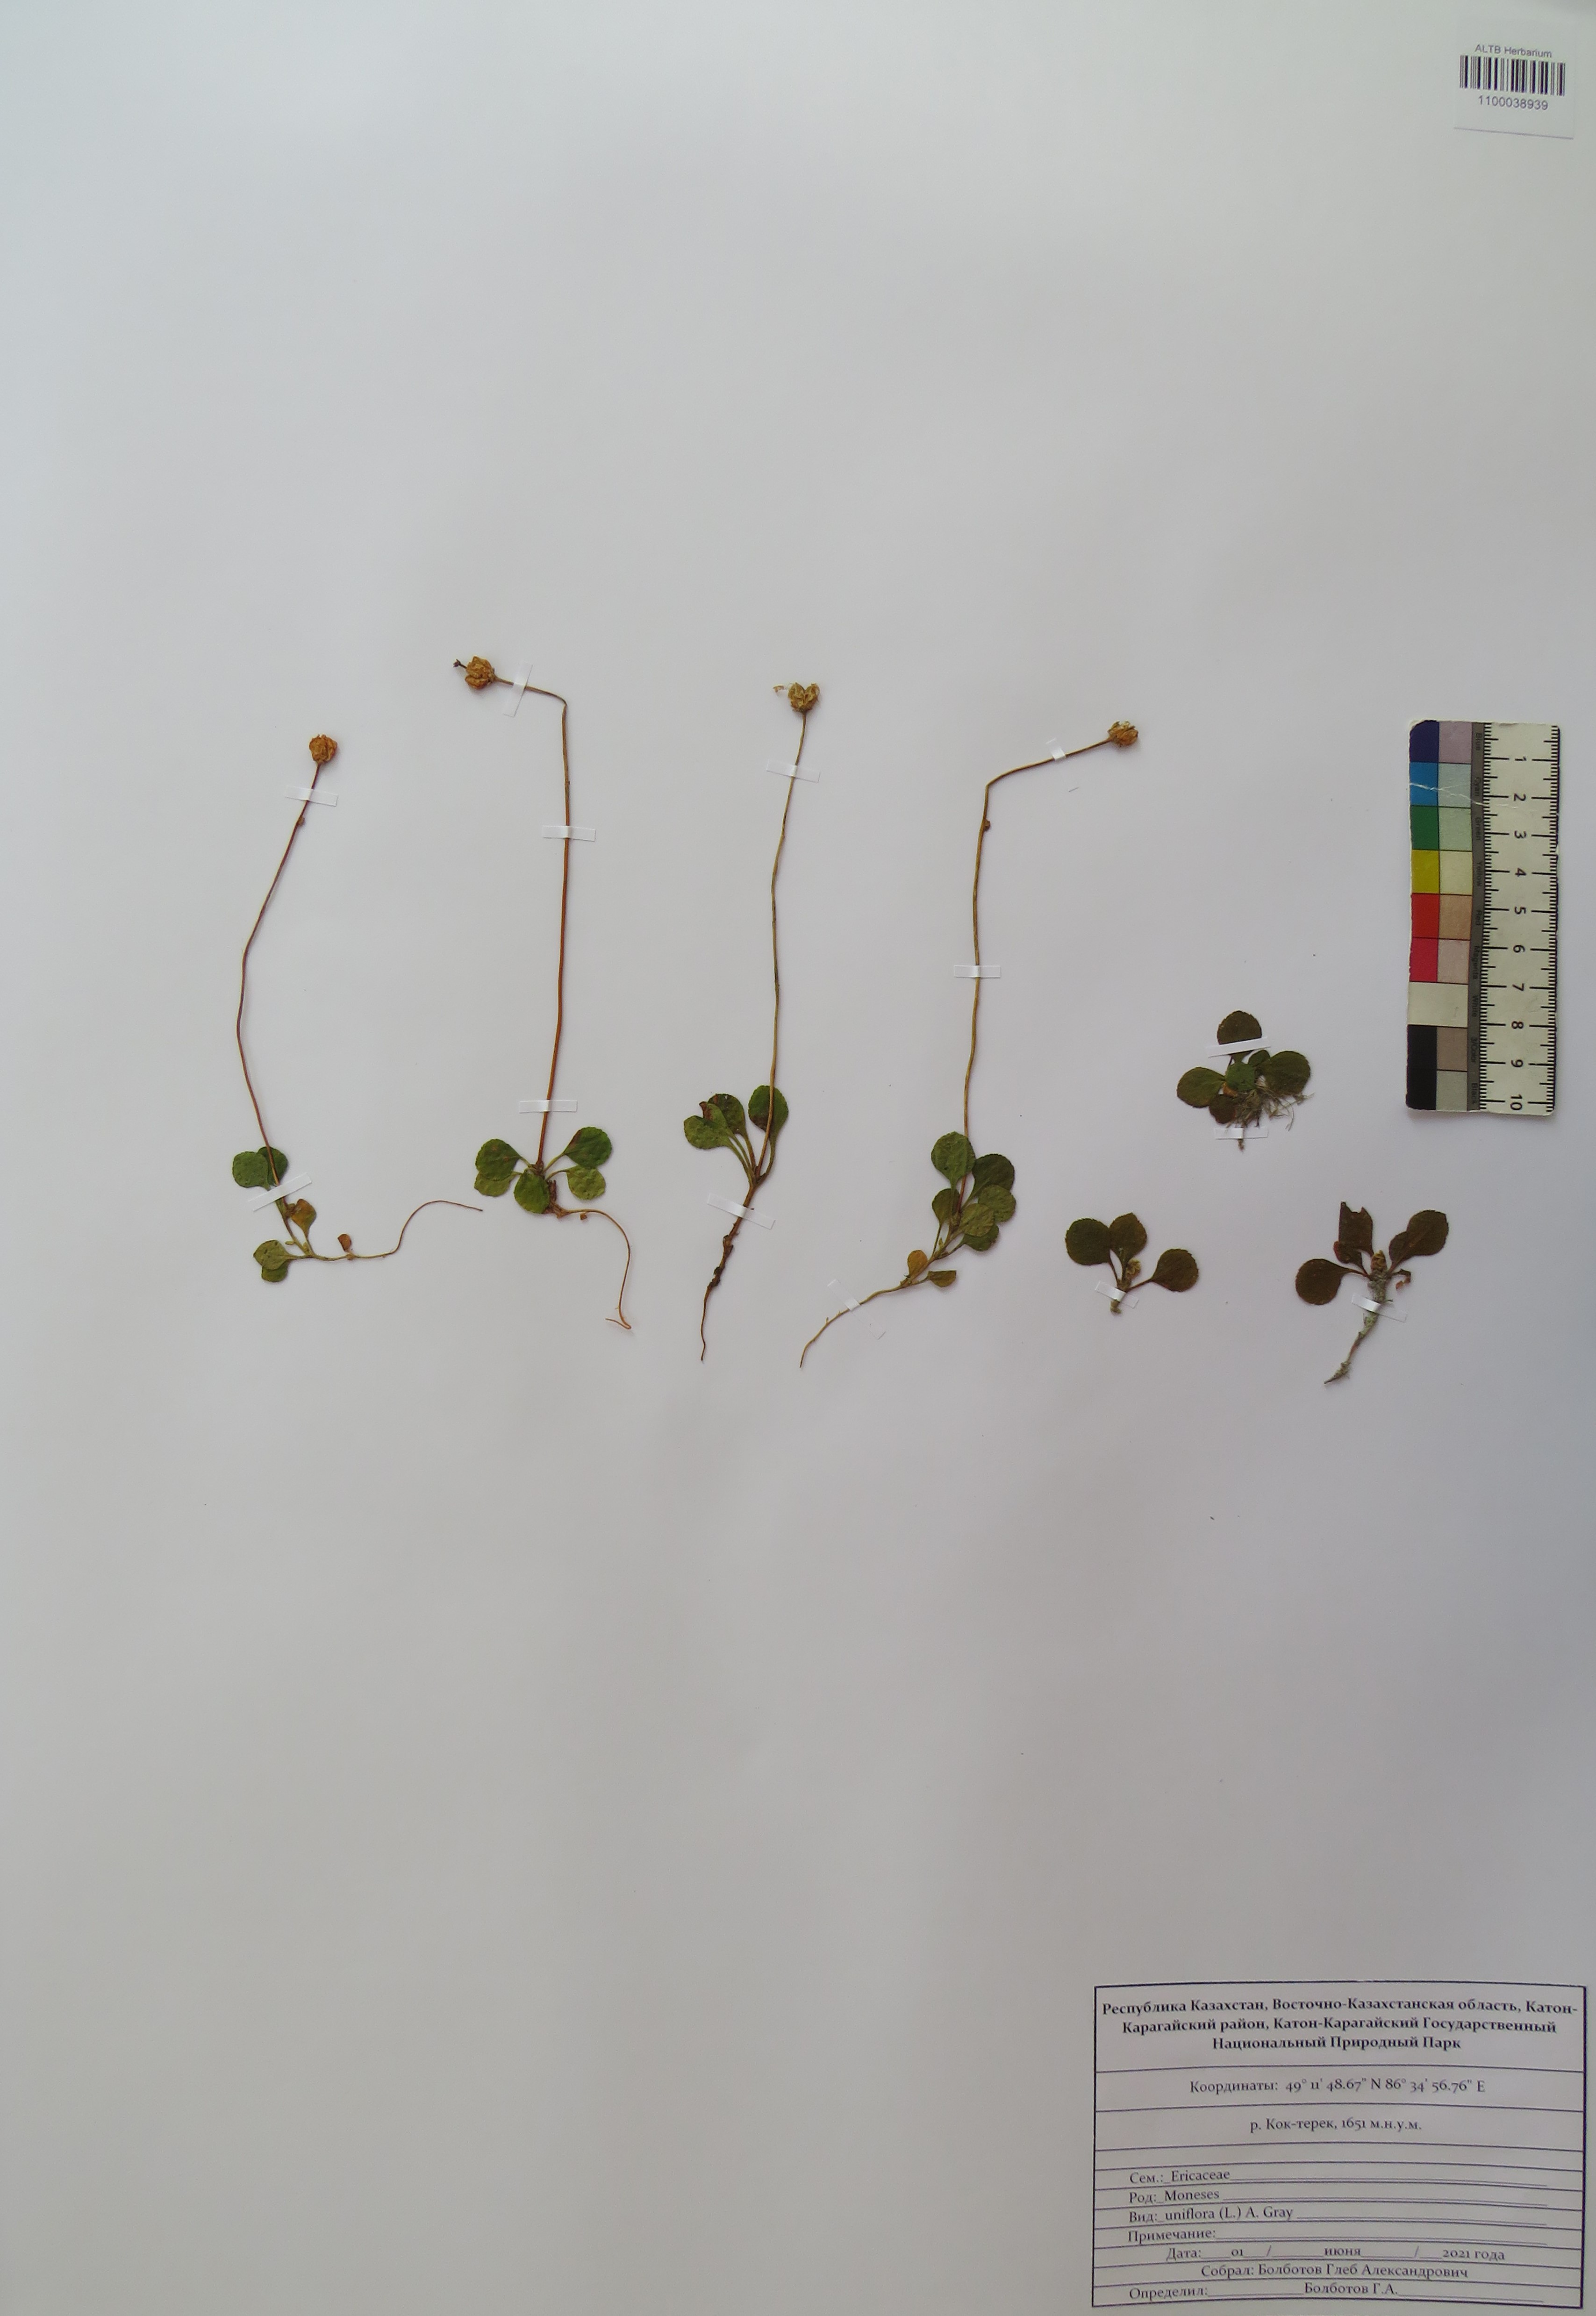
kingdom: Plantae
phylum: Tracheophyta
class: Magnoliopsida
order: Ericales
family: Ericaceae
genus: Moneses
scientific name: Moneses uniflora
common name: One-flowered wintergreen
